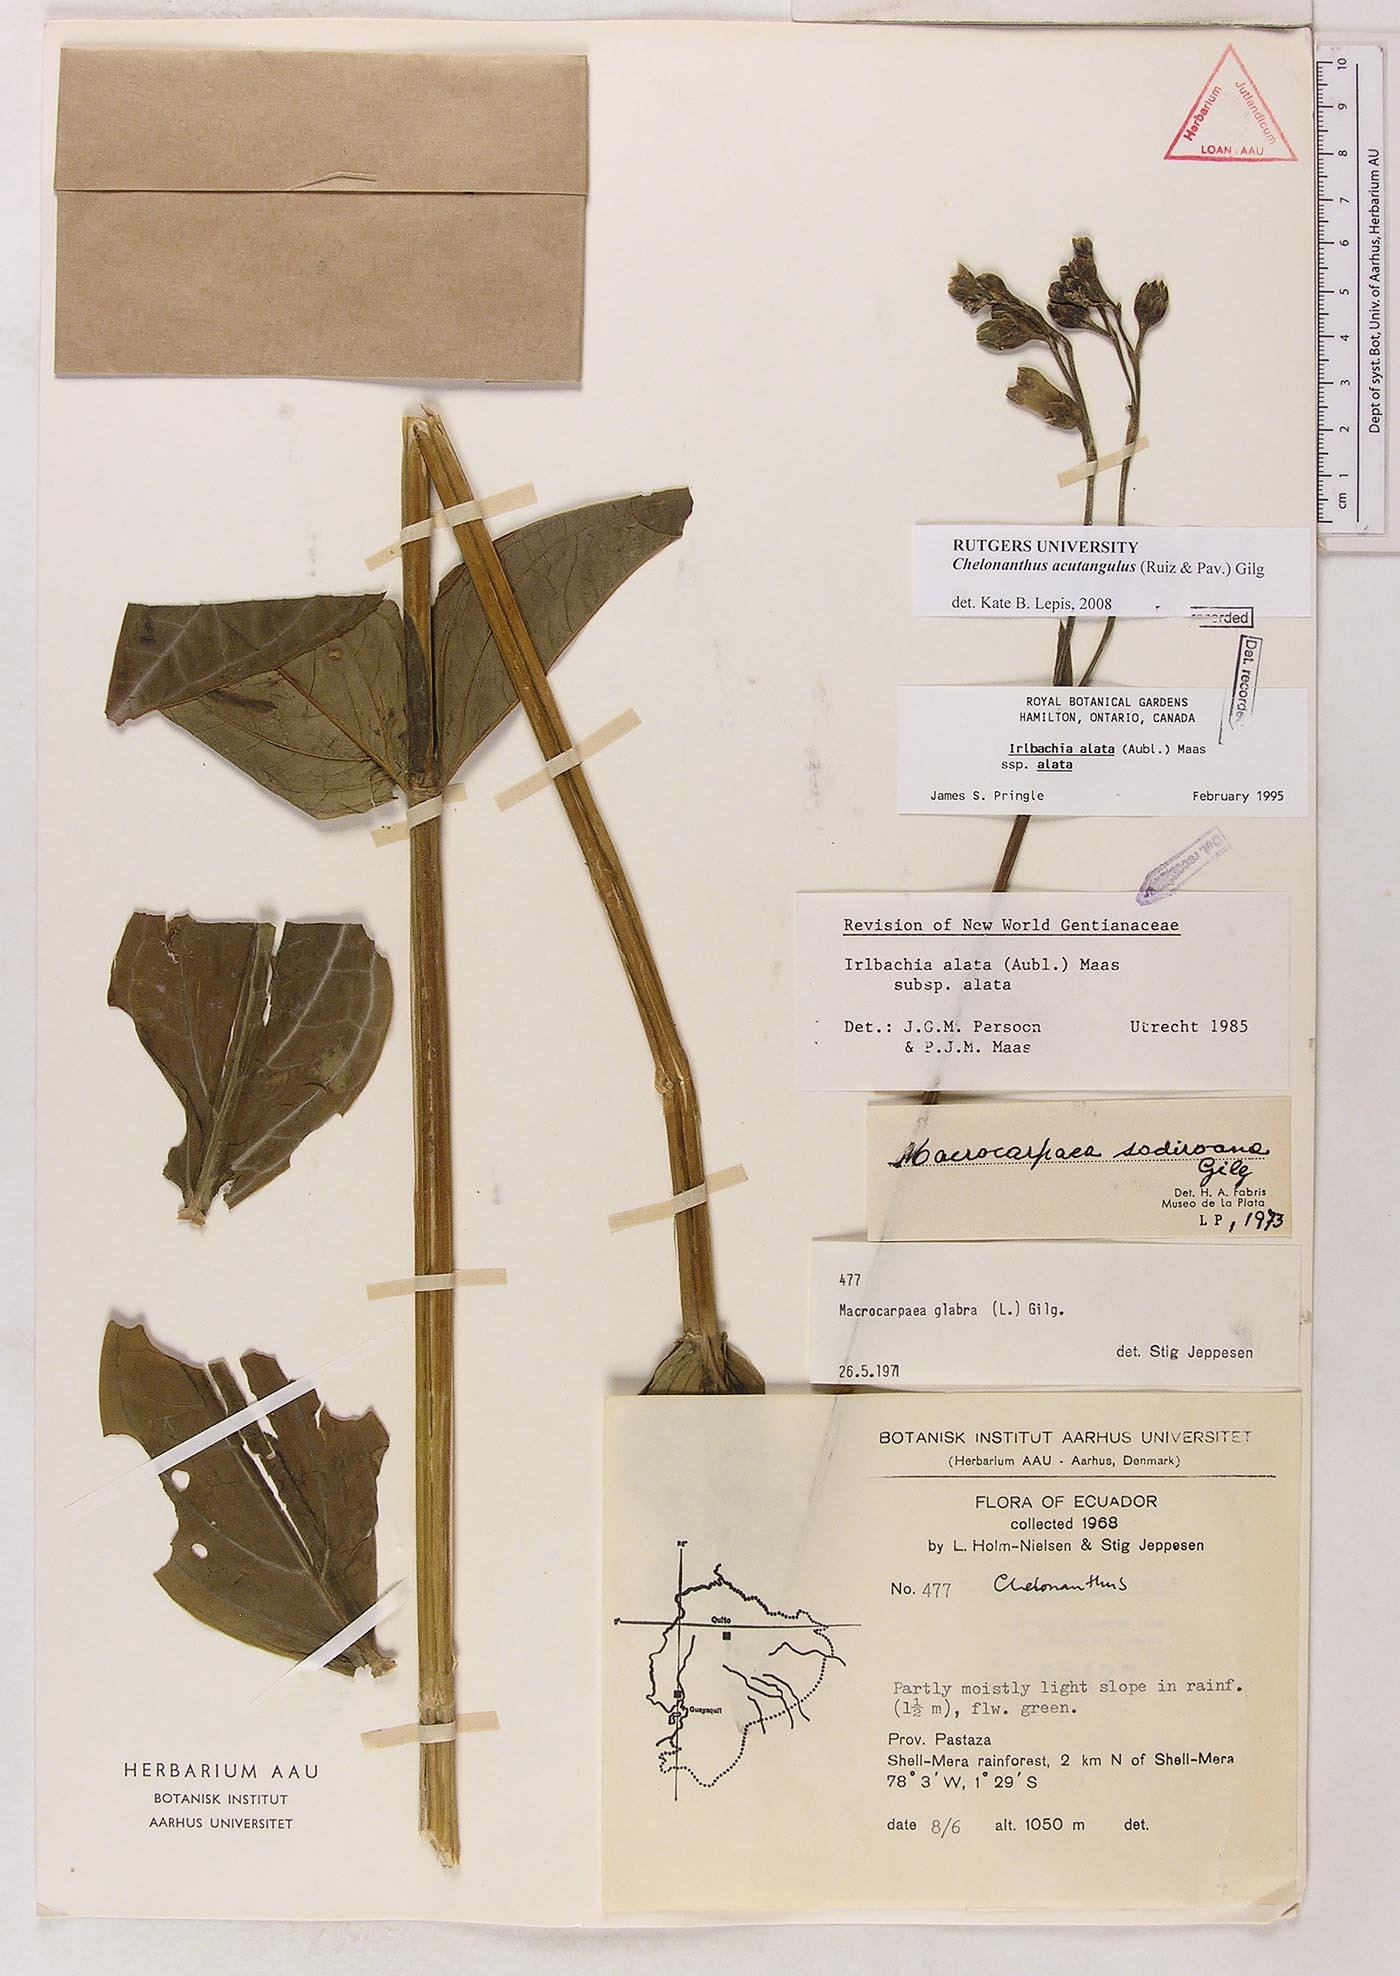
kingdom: Plantae
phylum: Tracheophyta
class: Magnoliopsida
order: Gentianales
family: Gentianaceae
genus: Chelonanthus
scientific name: Chelonanthus alatus
